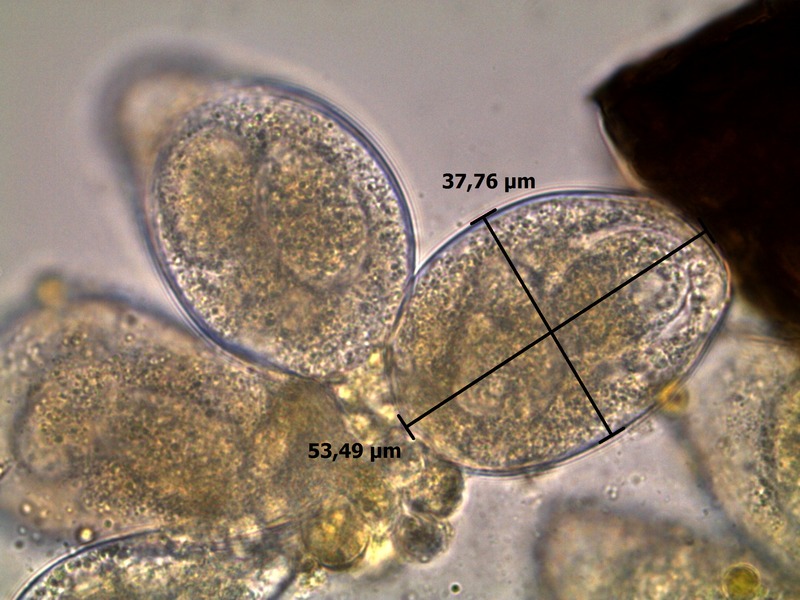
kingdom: Fungi
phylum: Ascomycota
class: Leotiomycetes
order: Helotiales
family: Erysiphaceae
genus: Golovinomyces
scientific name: Golovinomyces cichoracearum
